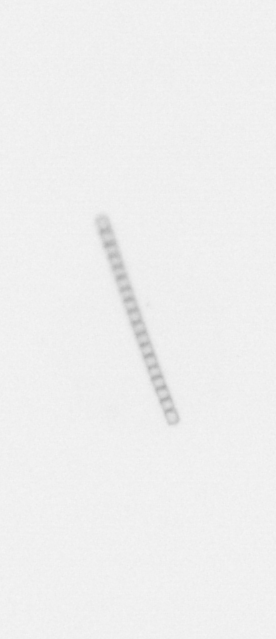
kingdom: Chromista
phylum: Ochrophyta
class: Bacillariophyceae
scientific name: Bacillariophyceae
